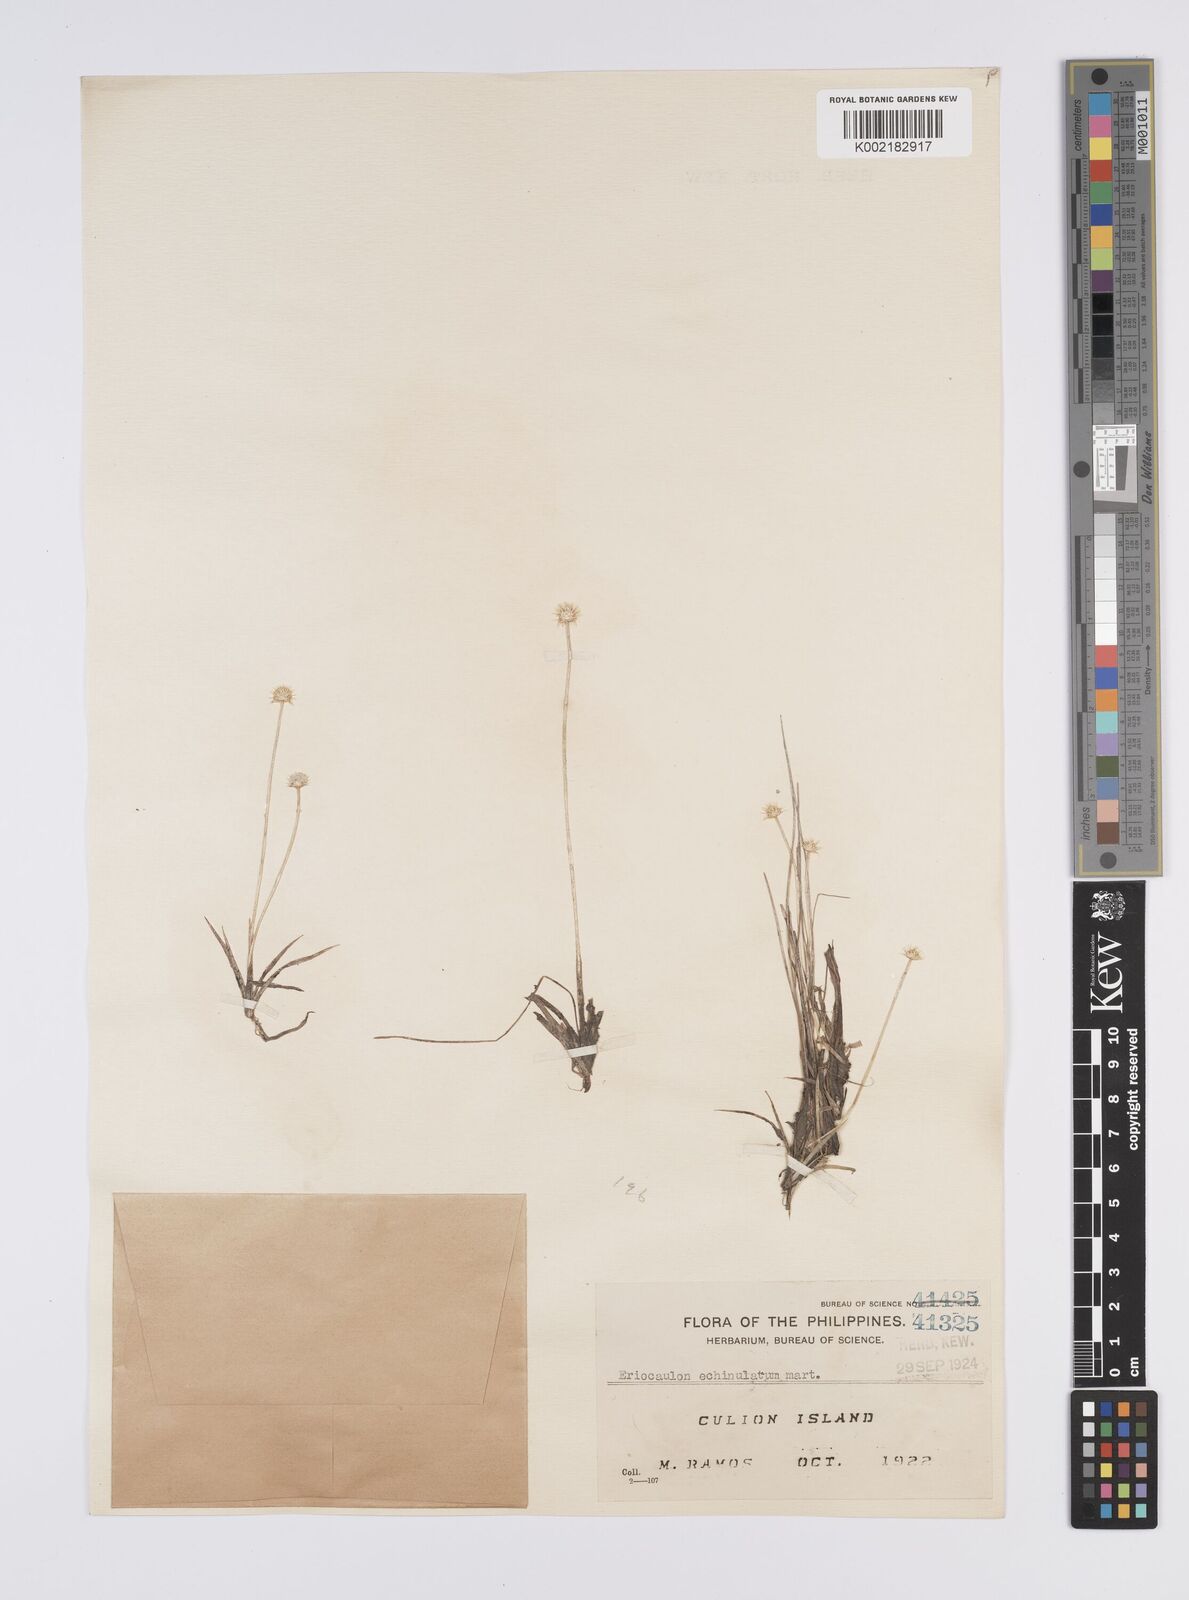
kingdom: Plantae
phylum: Tracheophyta
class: Liliopsida
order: Poales
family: Eriocaulaceae
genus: Eriocaulon
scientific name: Eriocaulon echinulatum
